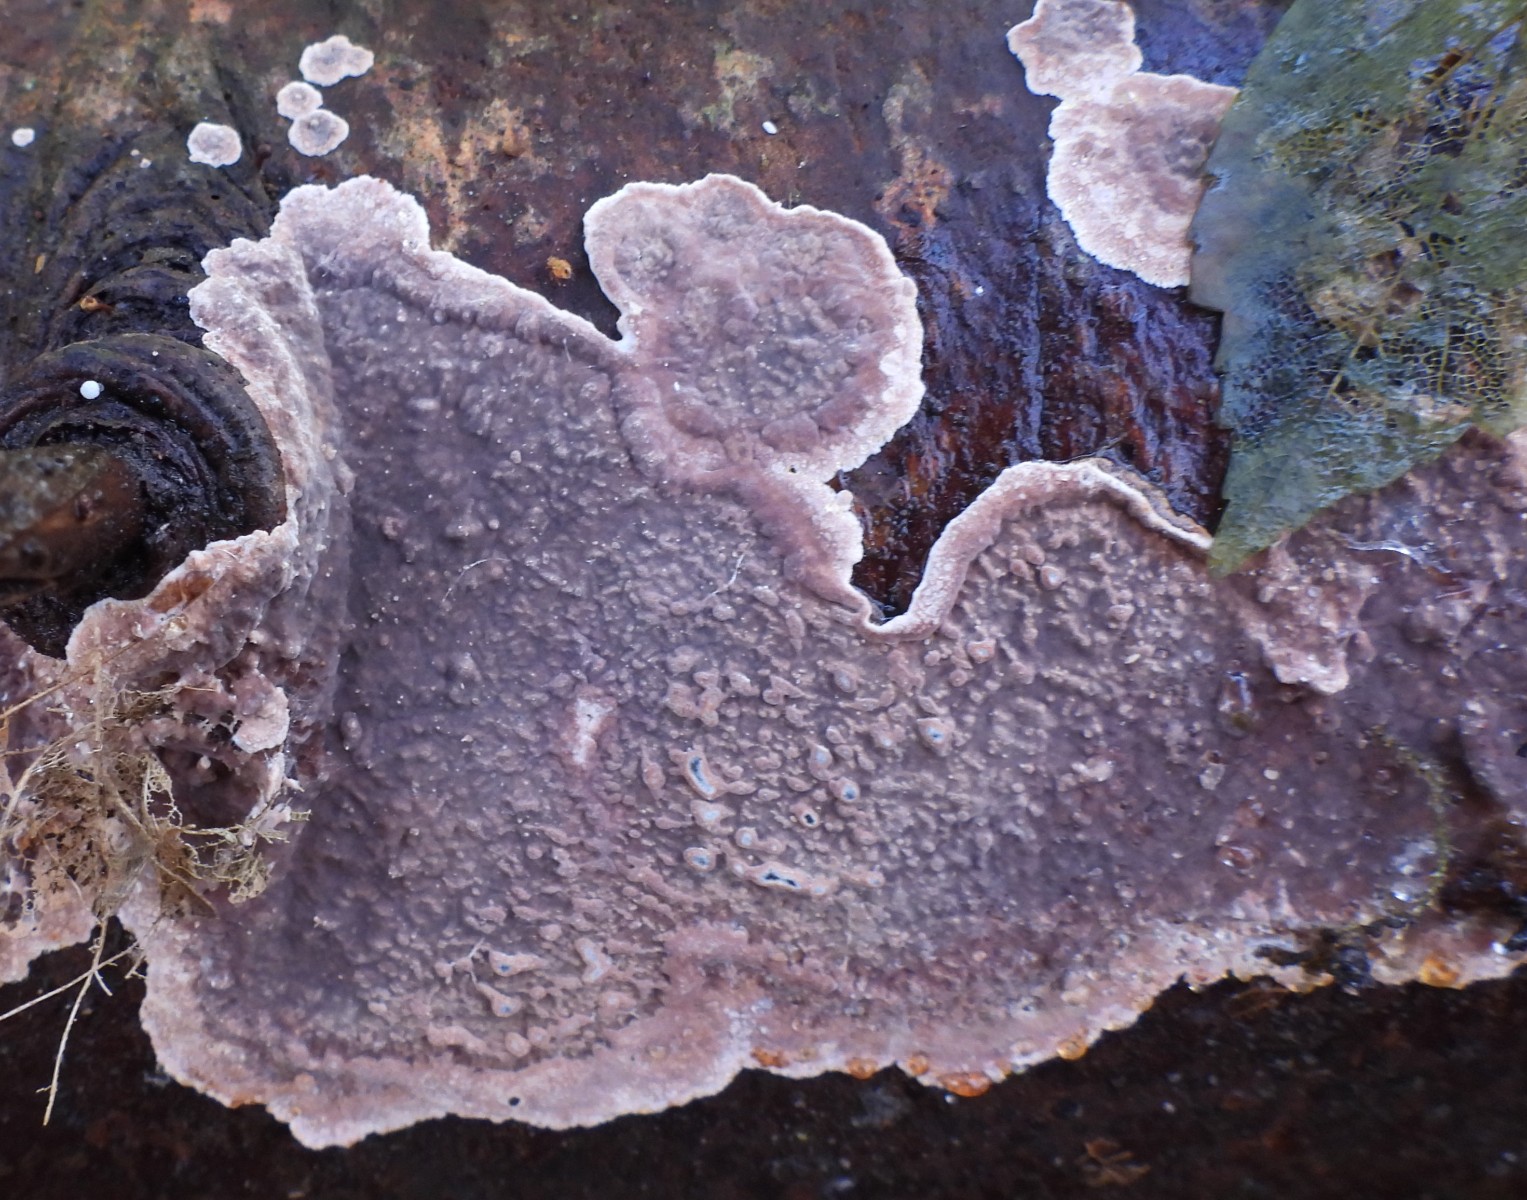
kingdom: Fungi
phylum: Basidiomycota
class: Agaricomycetes
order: Russulales
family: Echinodontiaceae
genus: Amylostereum
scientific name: Amylostereum chailletii
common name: gran-lædersvamp
